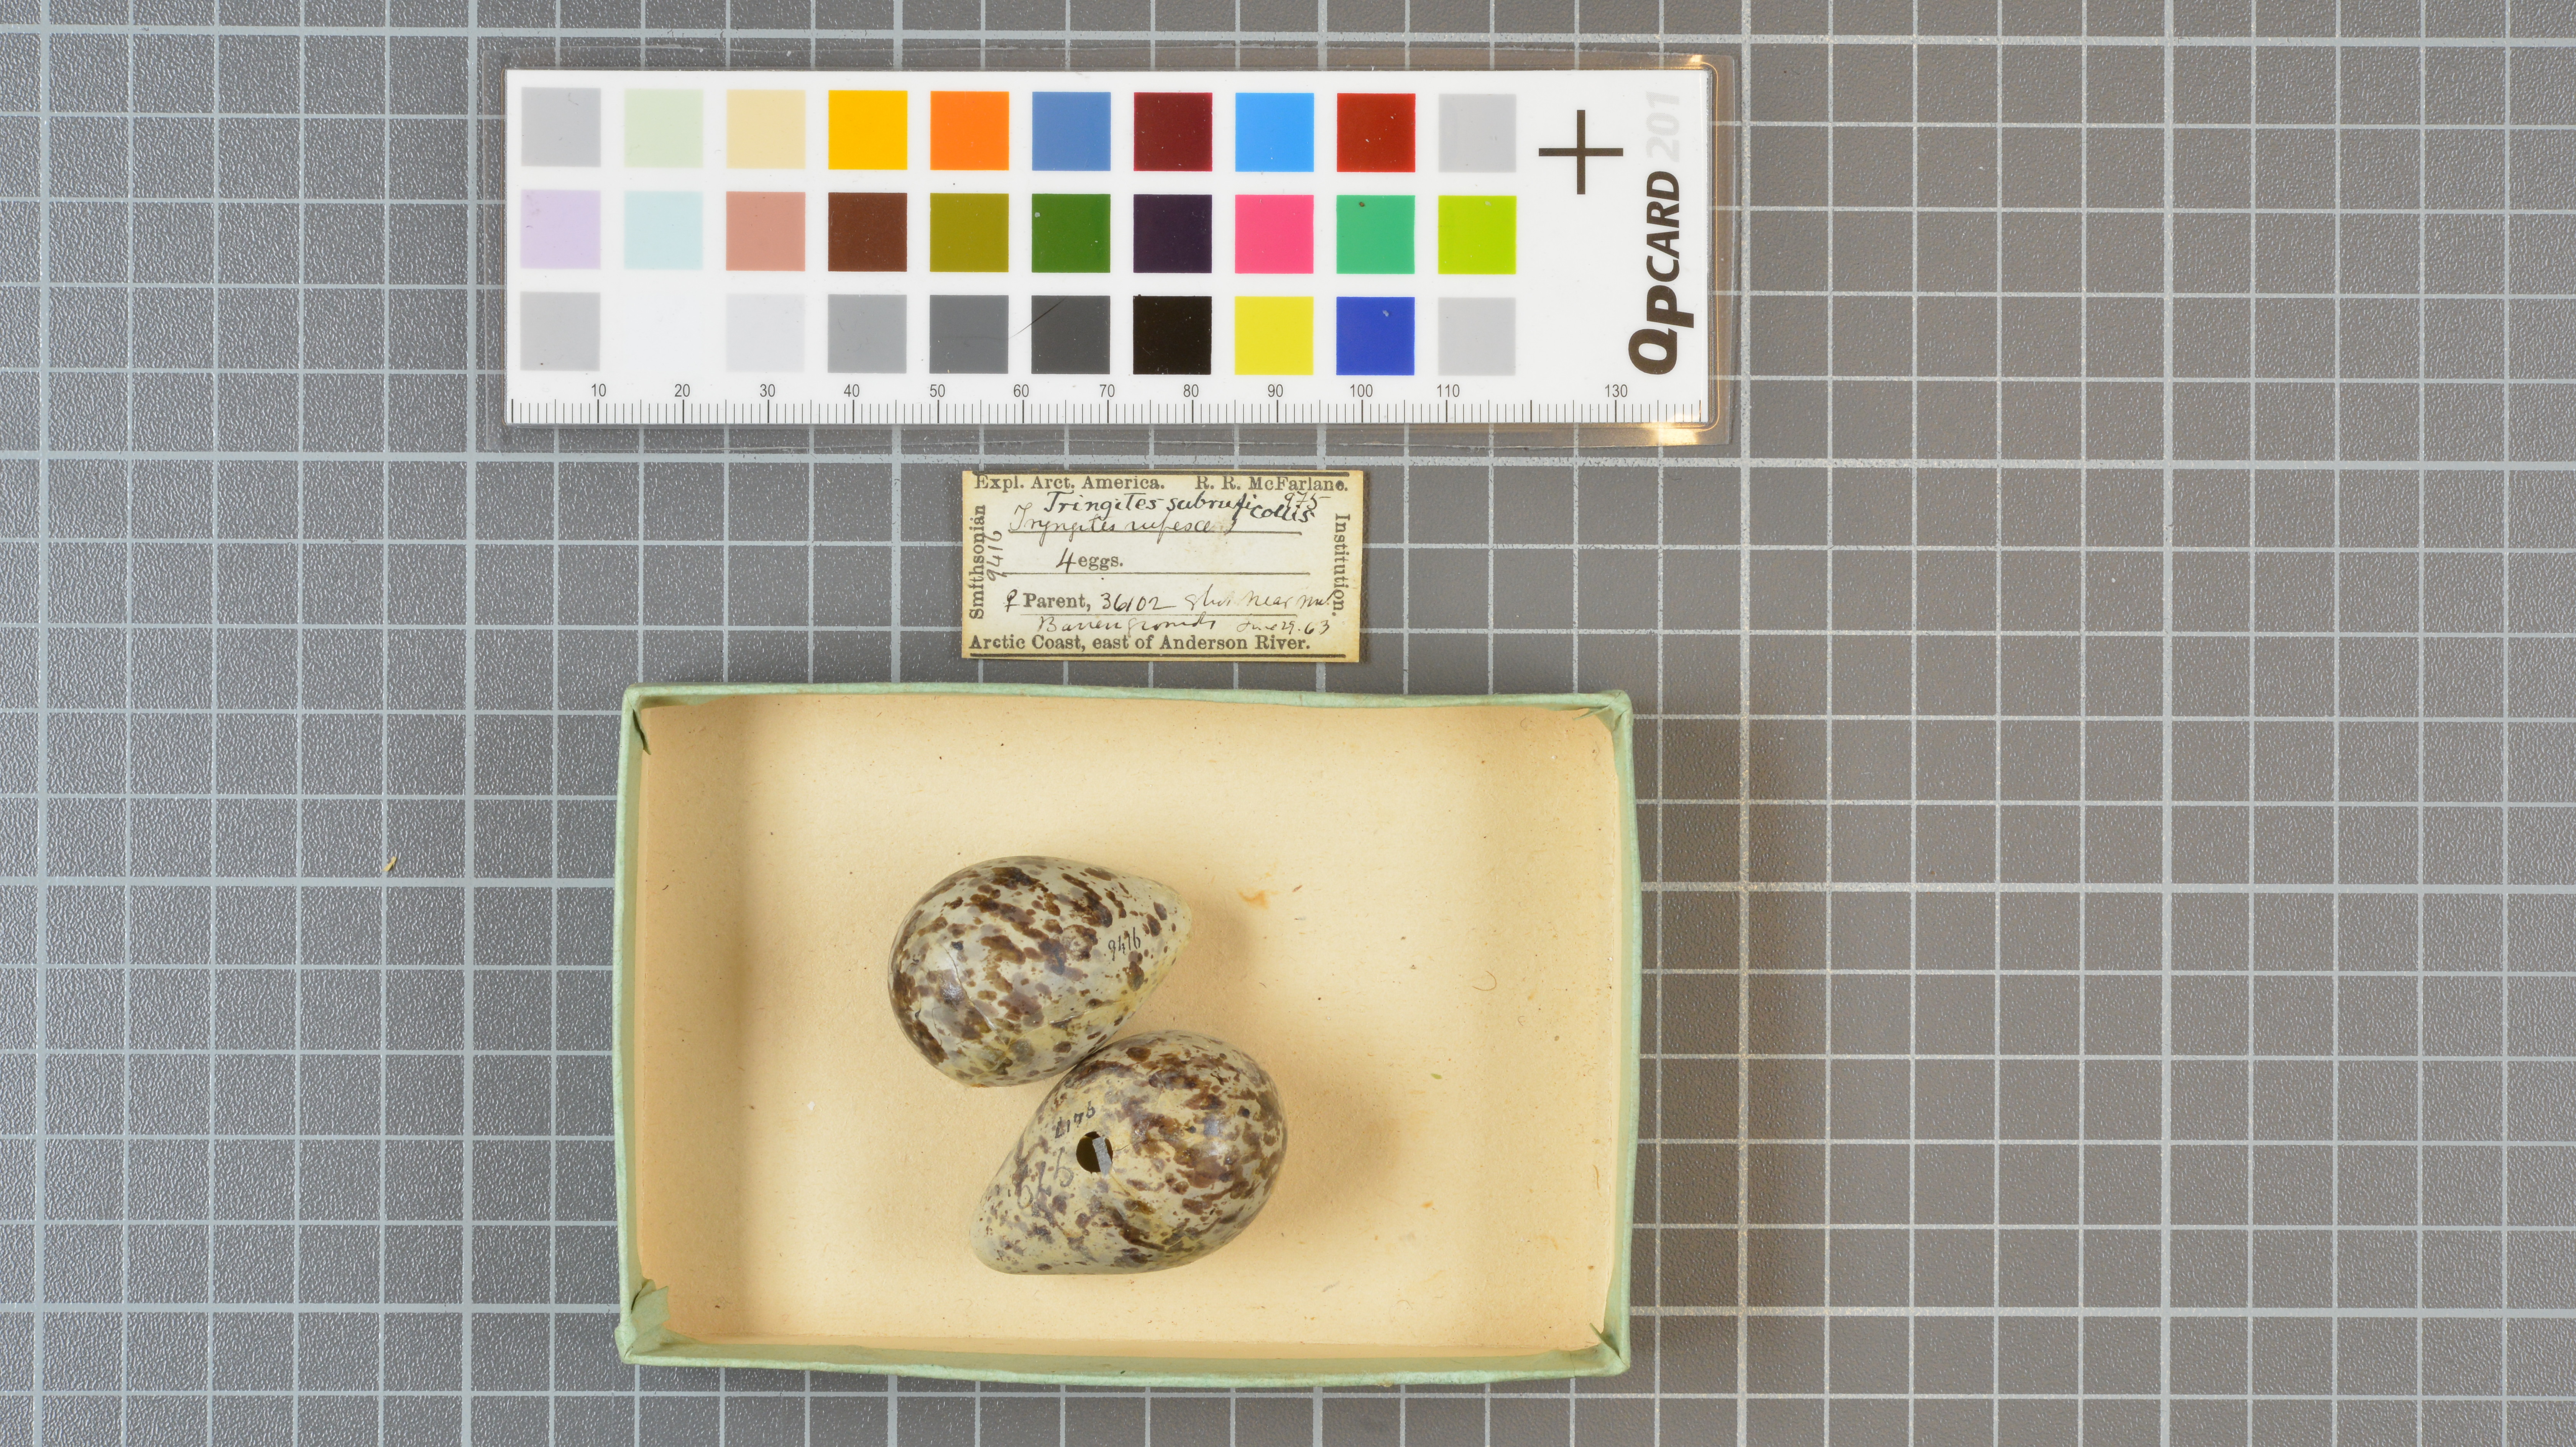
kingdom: Animalia
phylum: Chordata
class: Aves
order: Charadriiformes
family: Scolopacidae
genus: Calidris
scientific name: Calidris subruficollis
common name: Buff-breasted sandpiper
